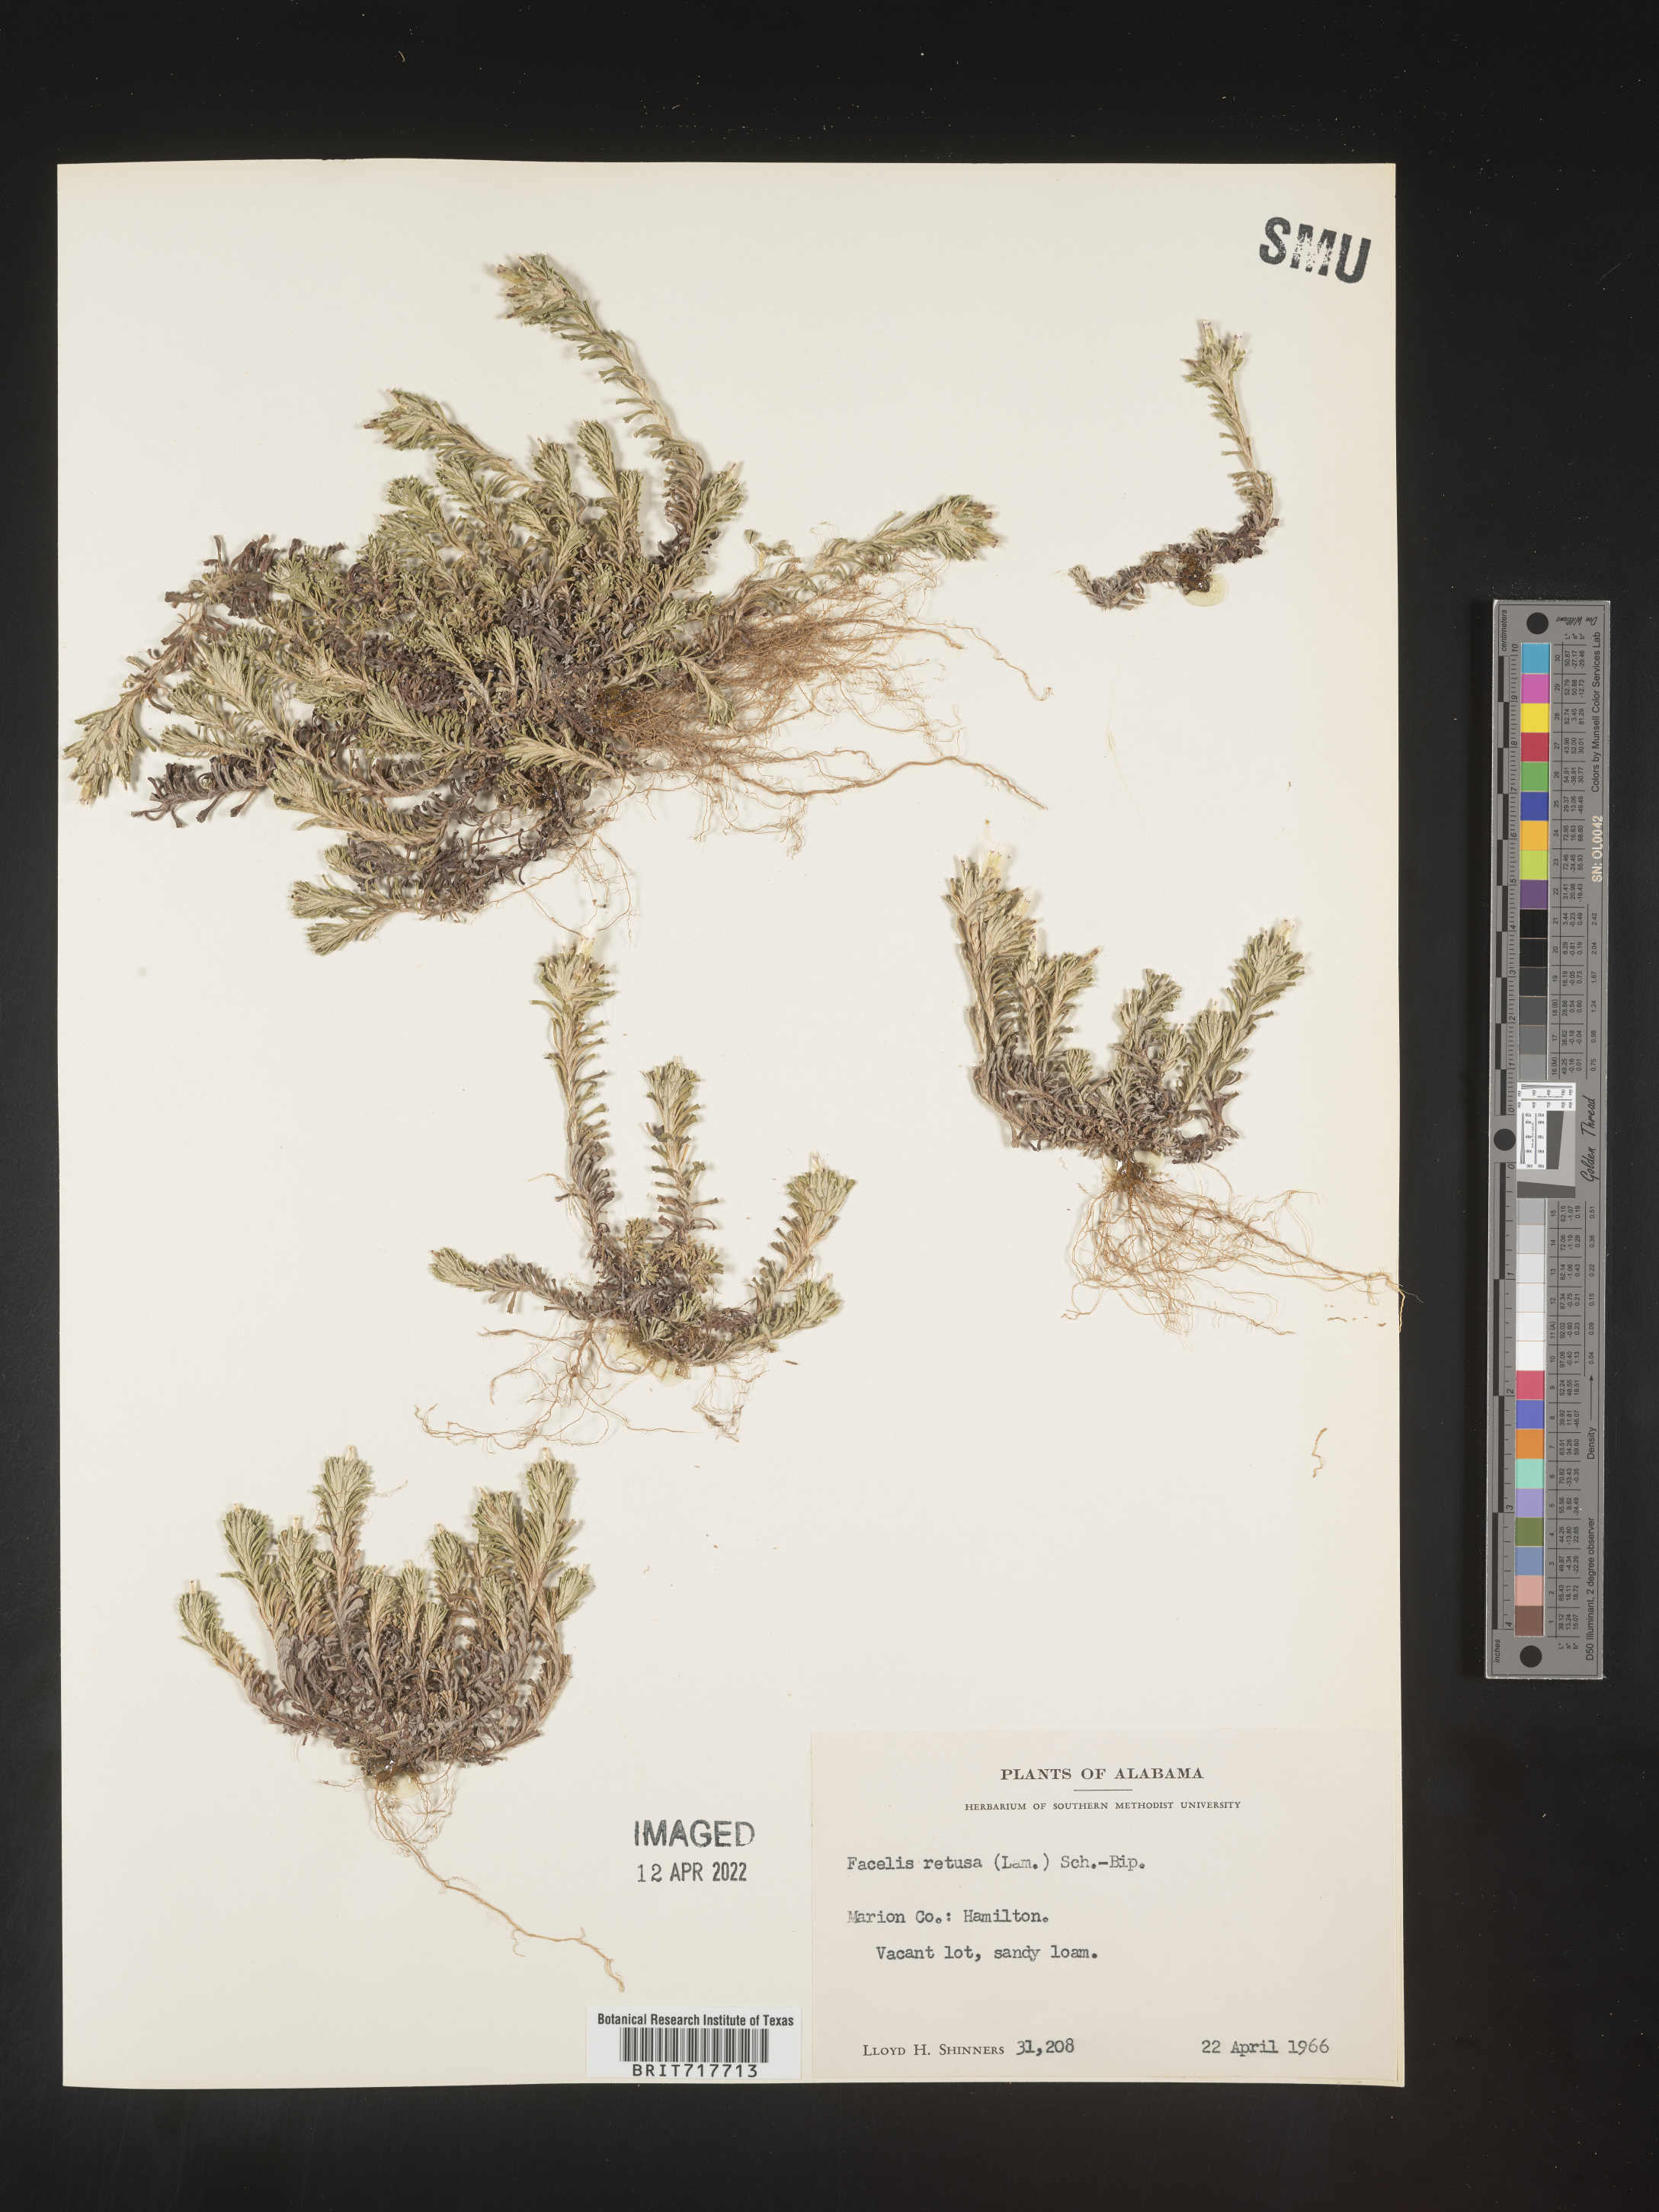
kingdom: Plantae
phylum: Tracheophyta
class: Magnoliopsida
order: Asterales
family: Asteraceae
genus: Facelis
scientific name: Facelis retusa
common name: Annual trampweed
